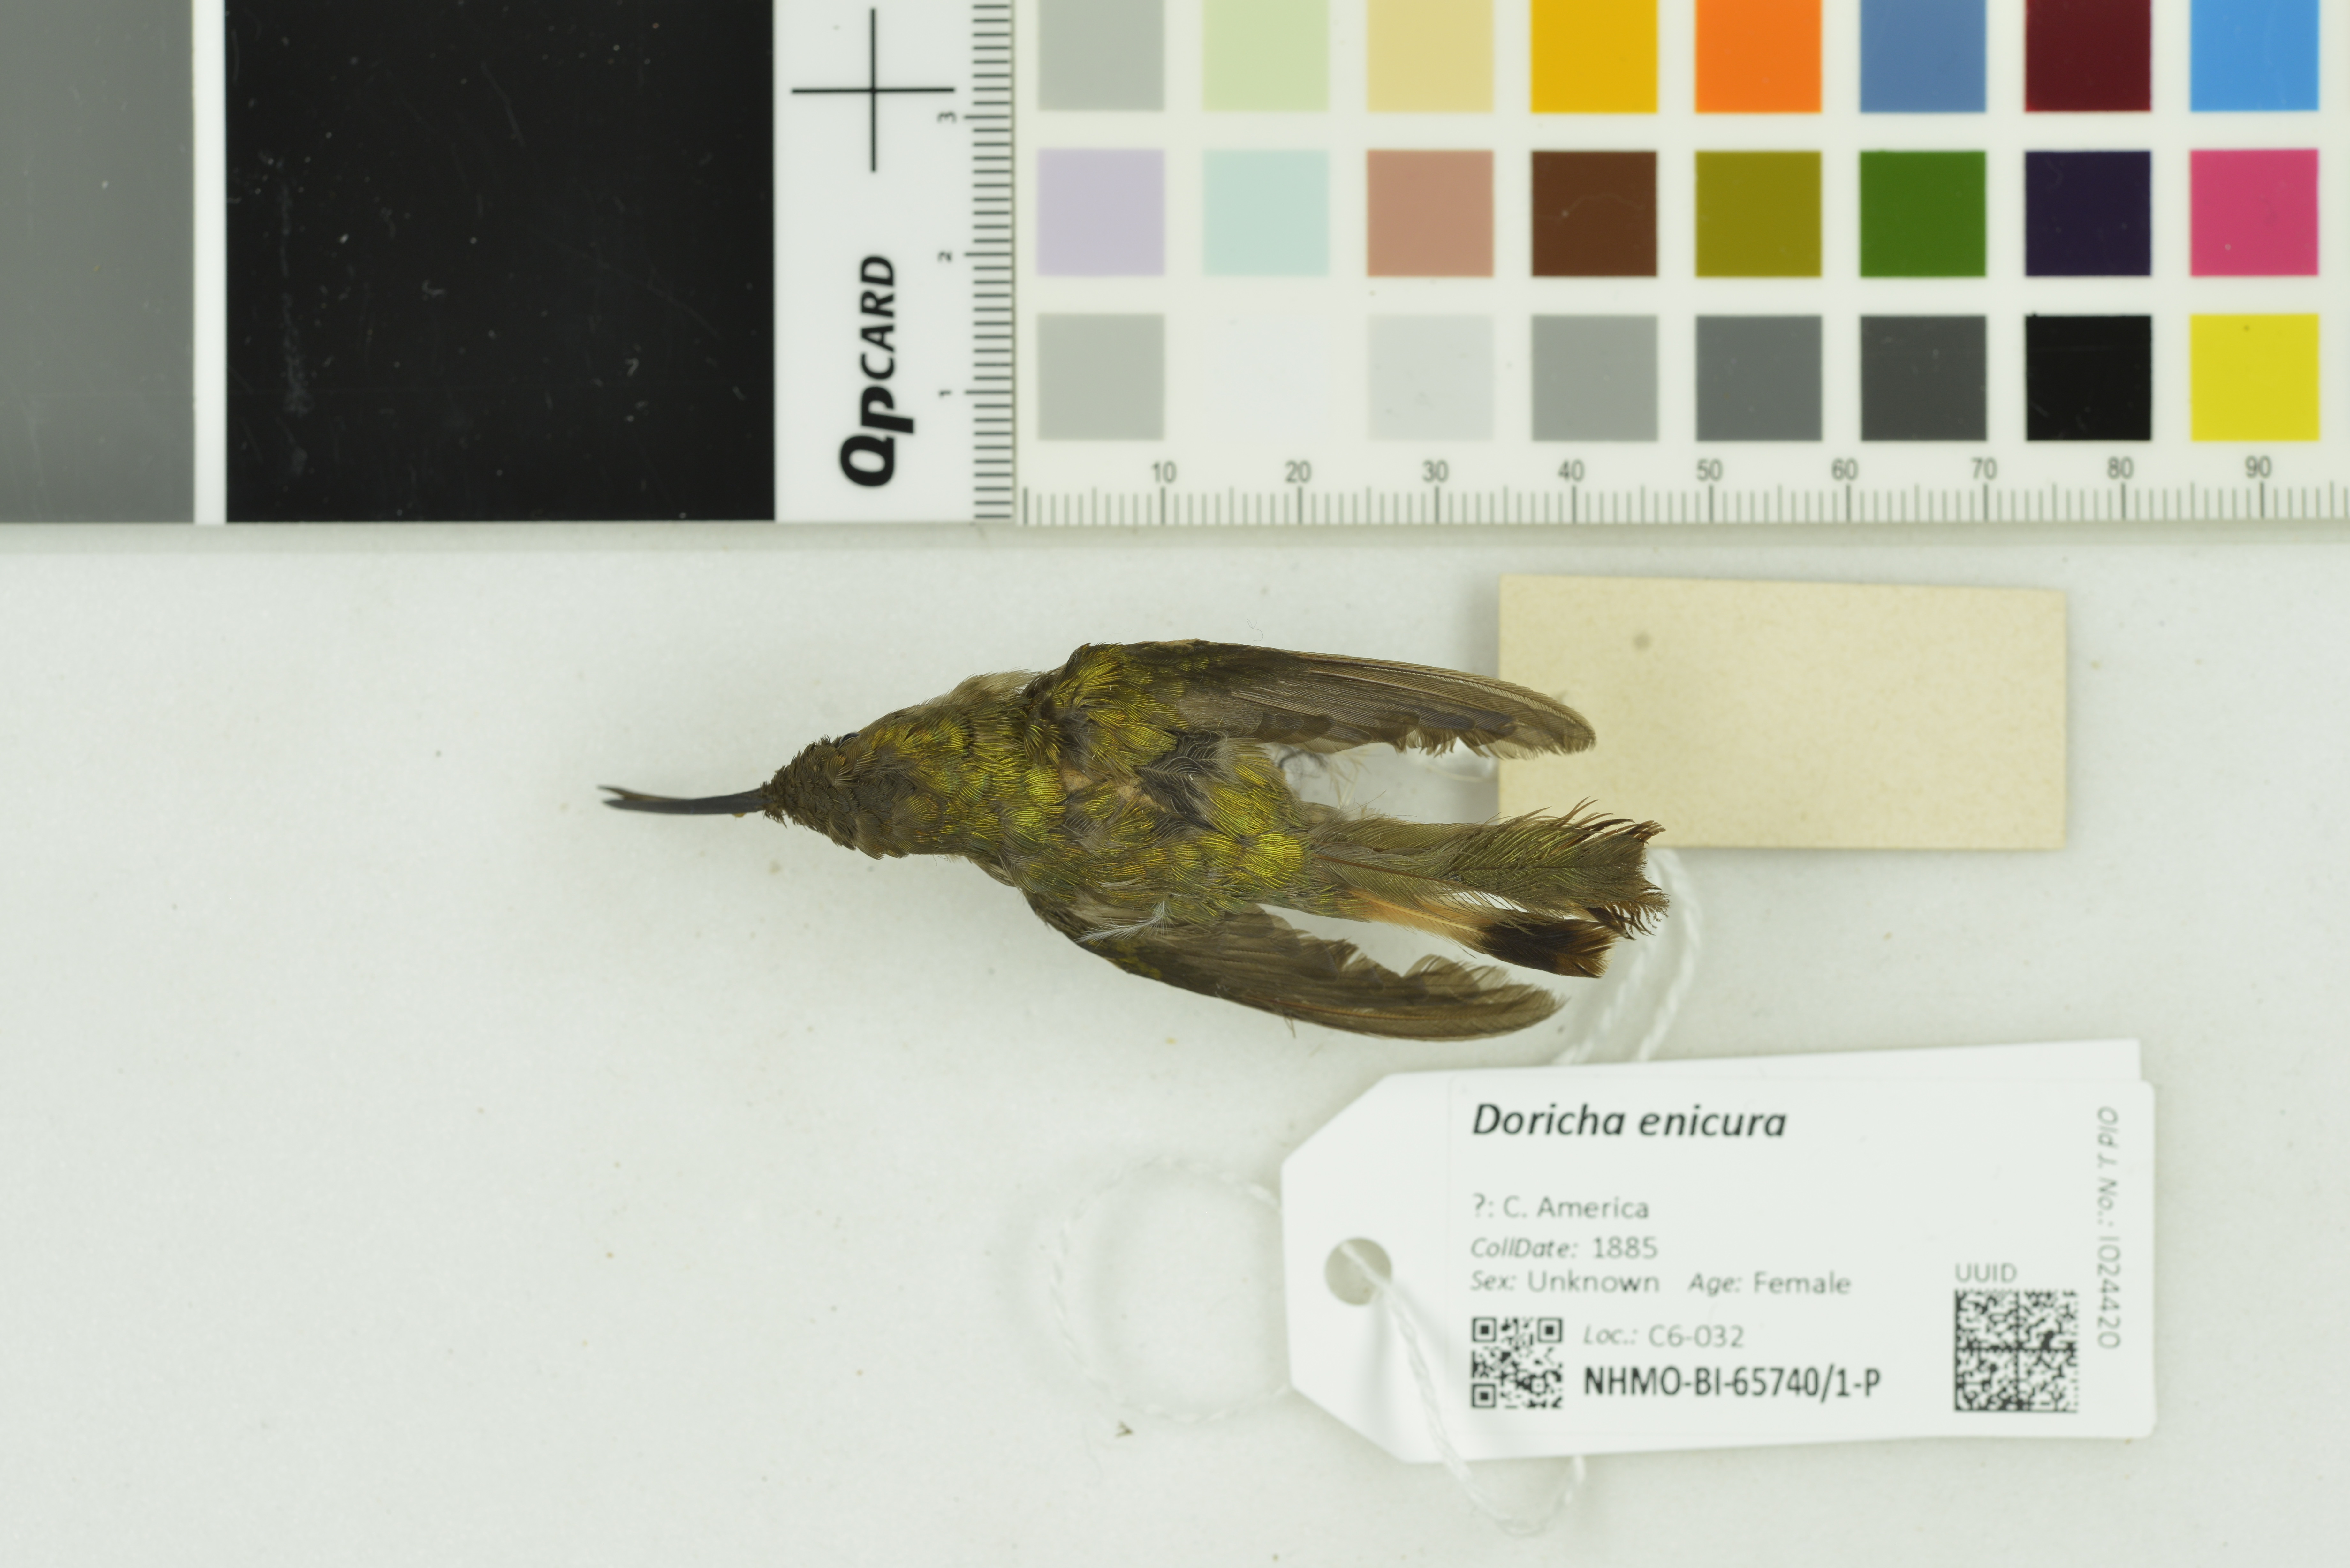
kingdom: Animalia
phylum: Chordata
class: Aves
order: Apodiformes
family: Trochilidae
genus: Doricha
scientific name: Doricha enicura
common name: Slender sheartail
